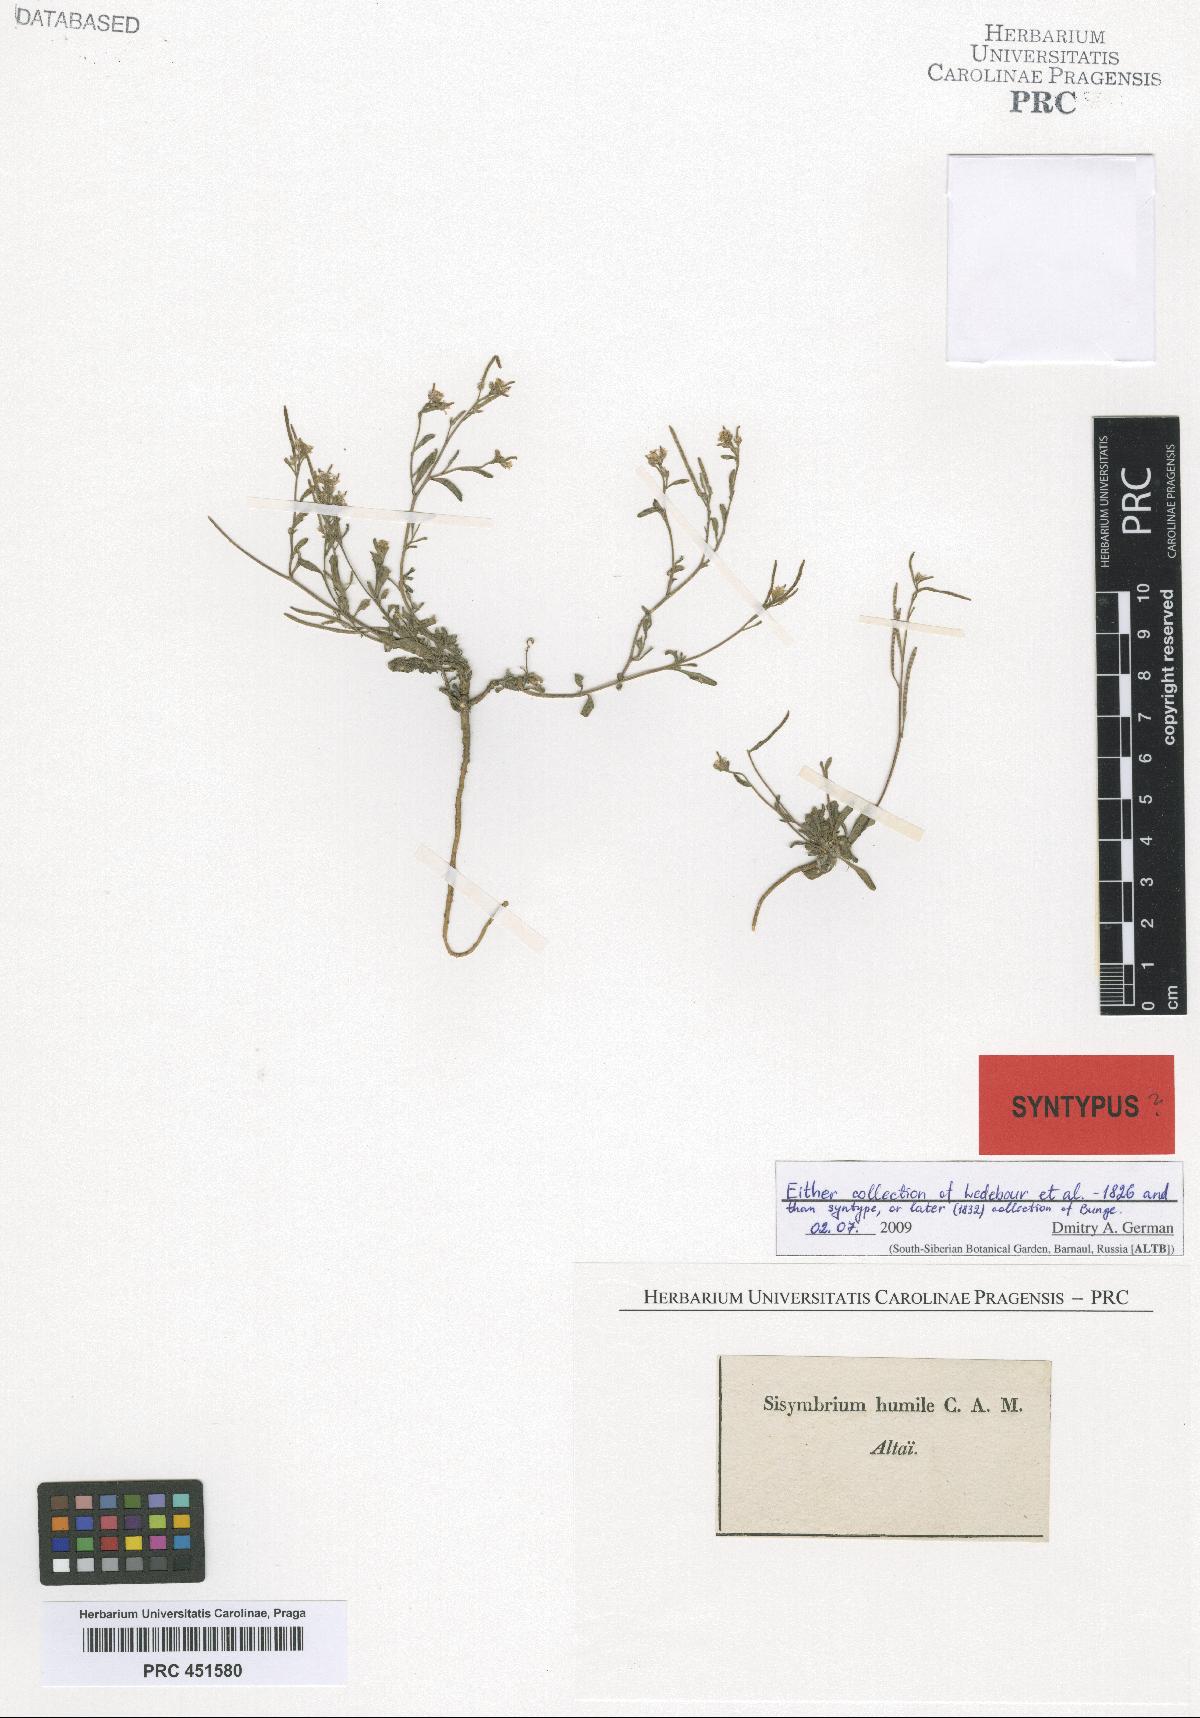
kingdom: Plantae
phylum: Tracheophyta
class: Magnoliopsida
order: Brassicales
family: Brassicaceae
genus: Braya
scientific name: Braya humilis
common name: Alpine northern rockcress
